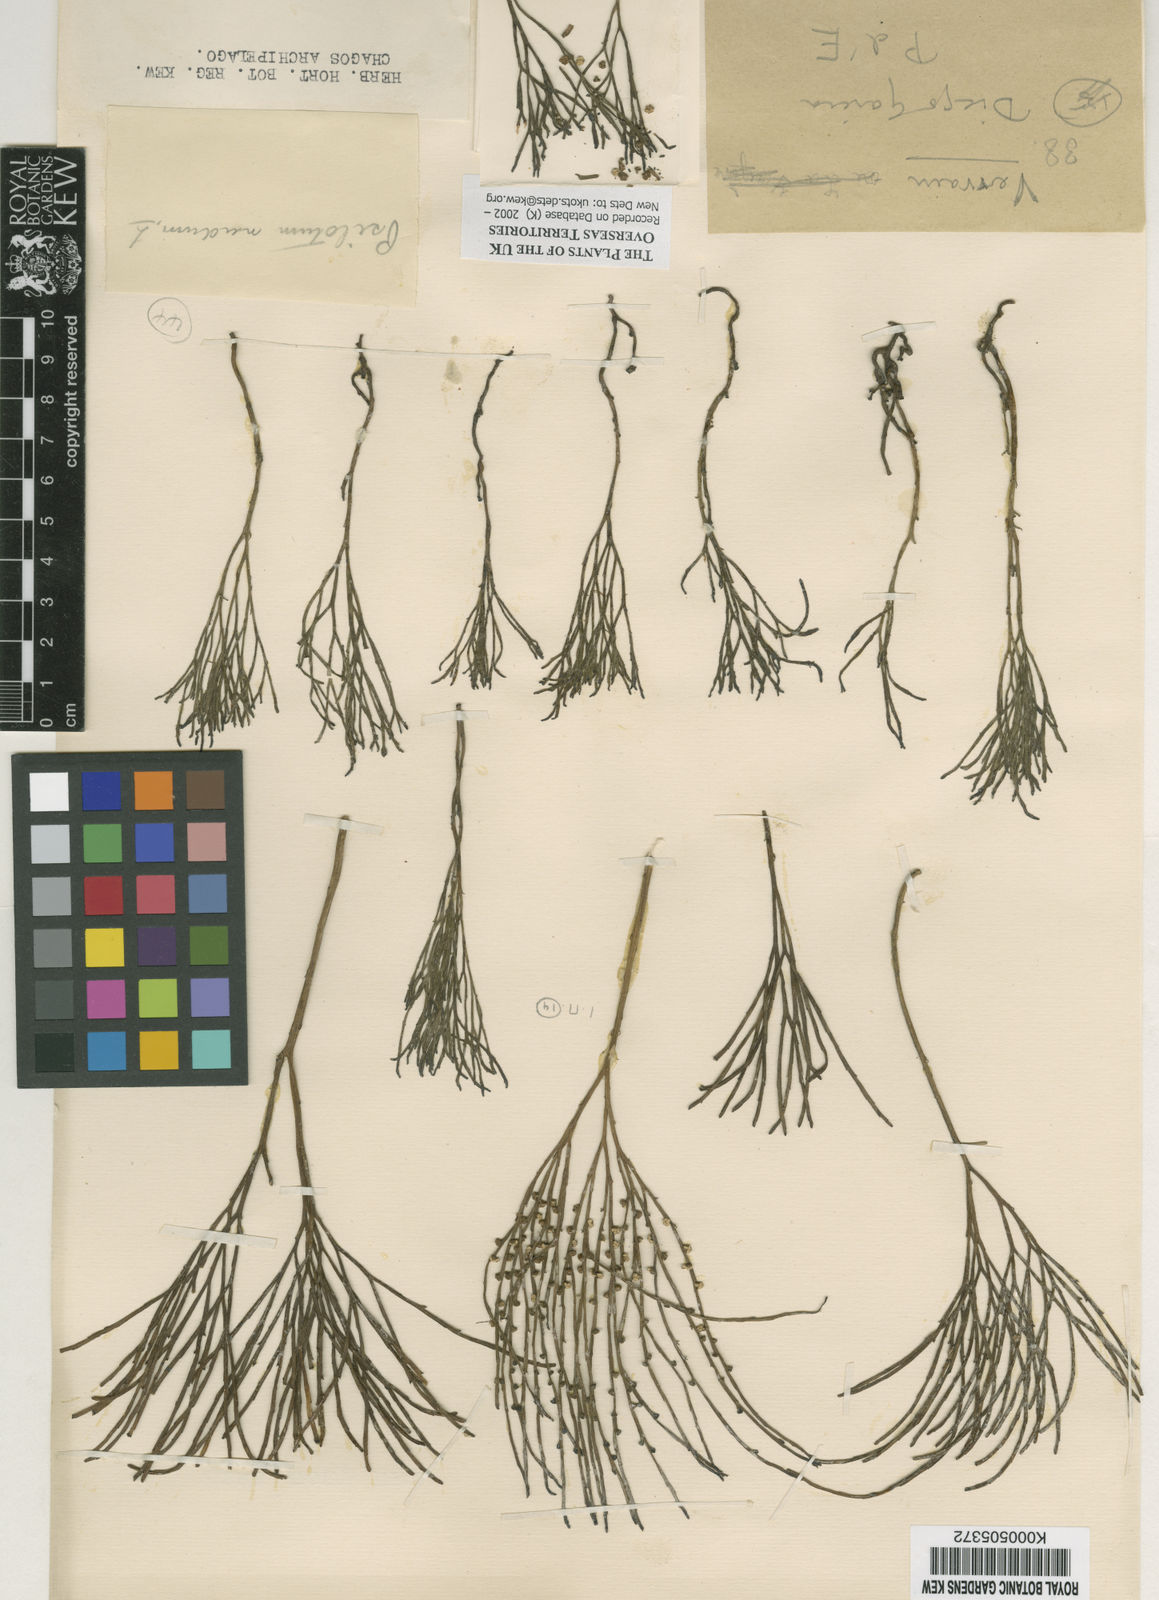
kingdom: Plantae
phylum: Tracheophyta
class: Polypodiopsida
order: Psilotales
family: Psilotaceae
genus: Psilotum
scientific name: Psilotum
